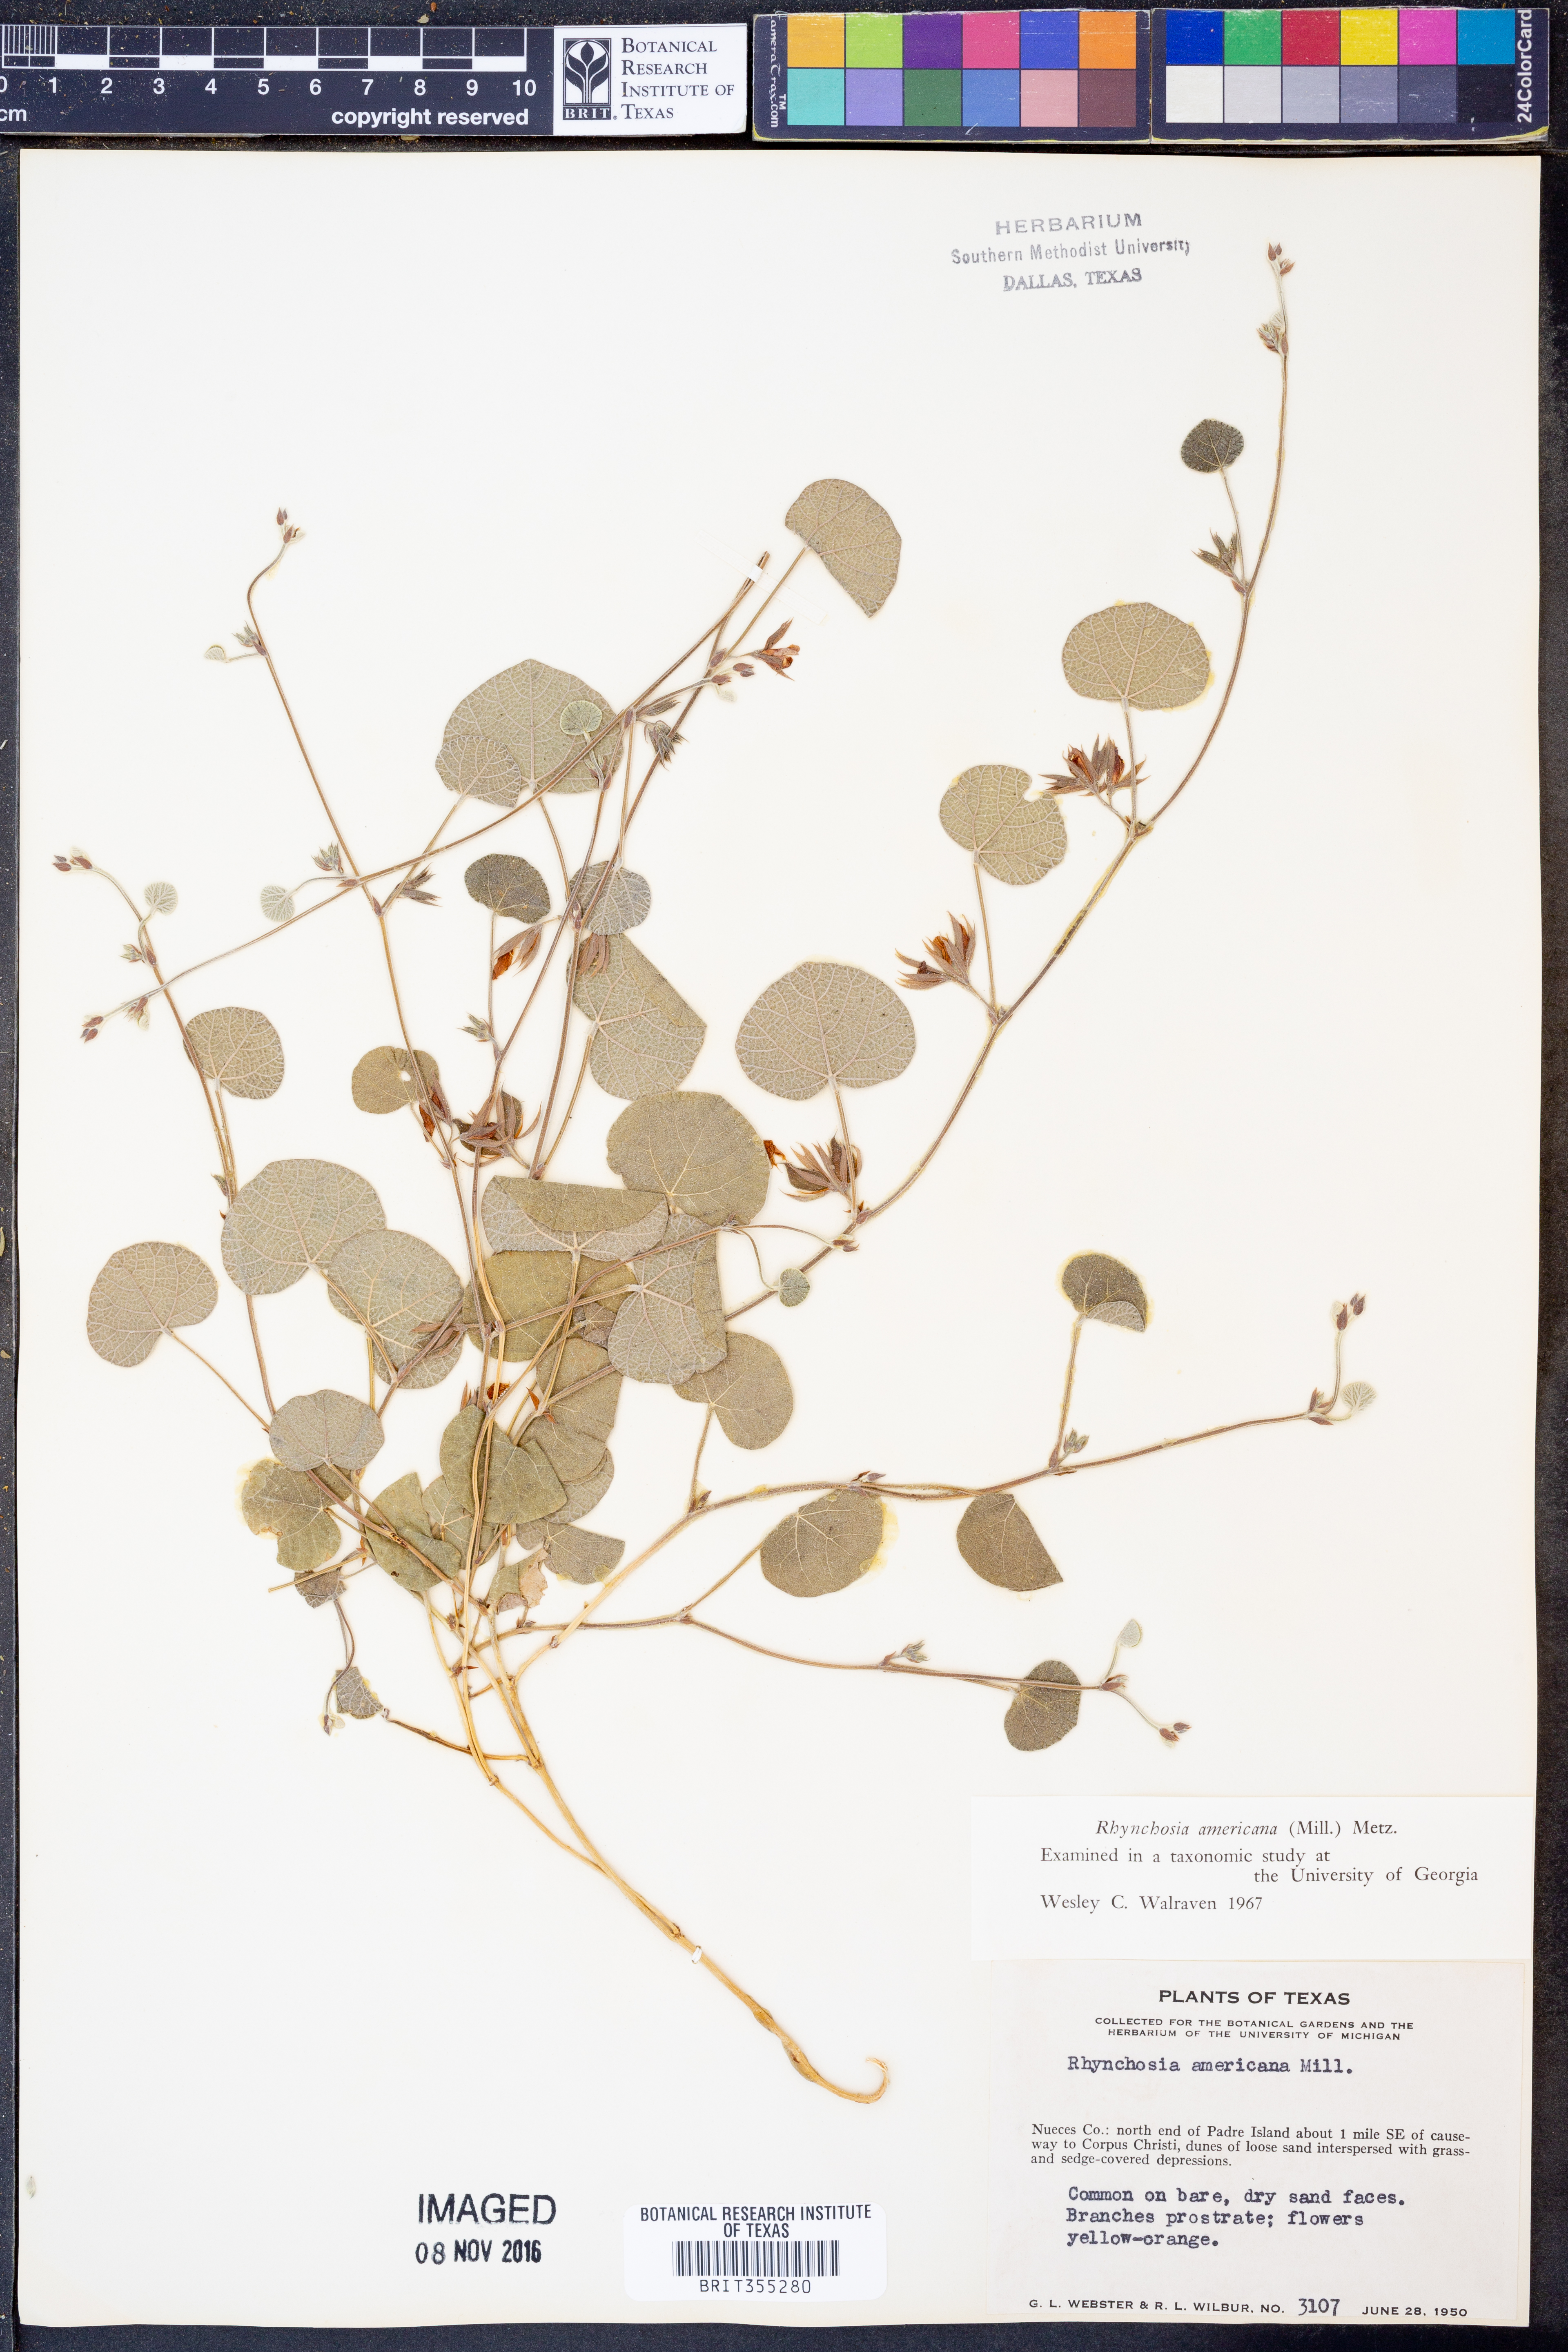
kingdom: Plantae
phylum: Tracheophyta
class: Magnoliopsida
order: Fabales
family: Fabaceae
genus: Rhynchosia
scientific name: Rhynchosia americana
